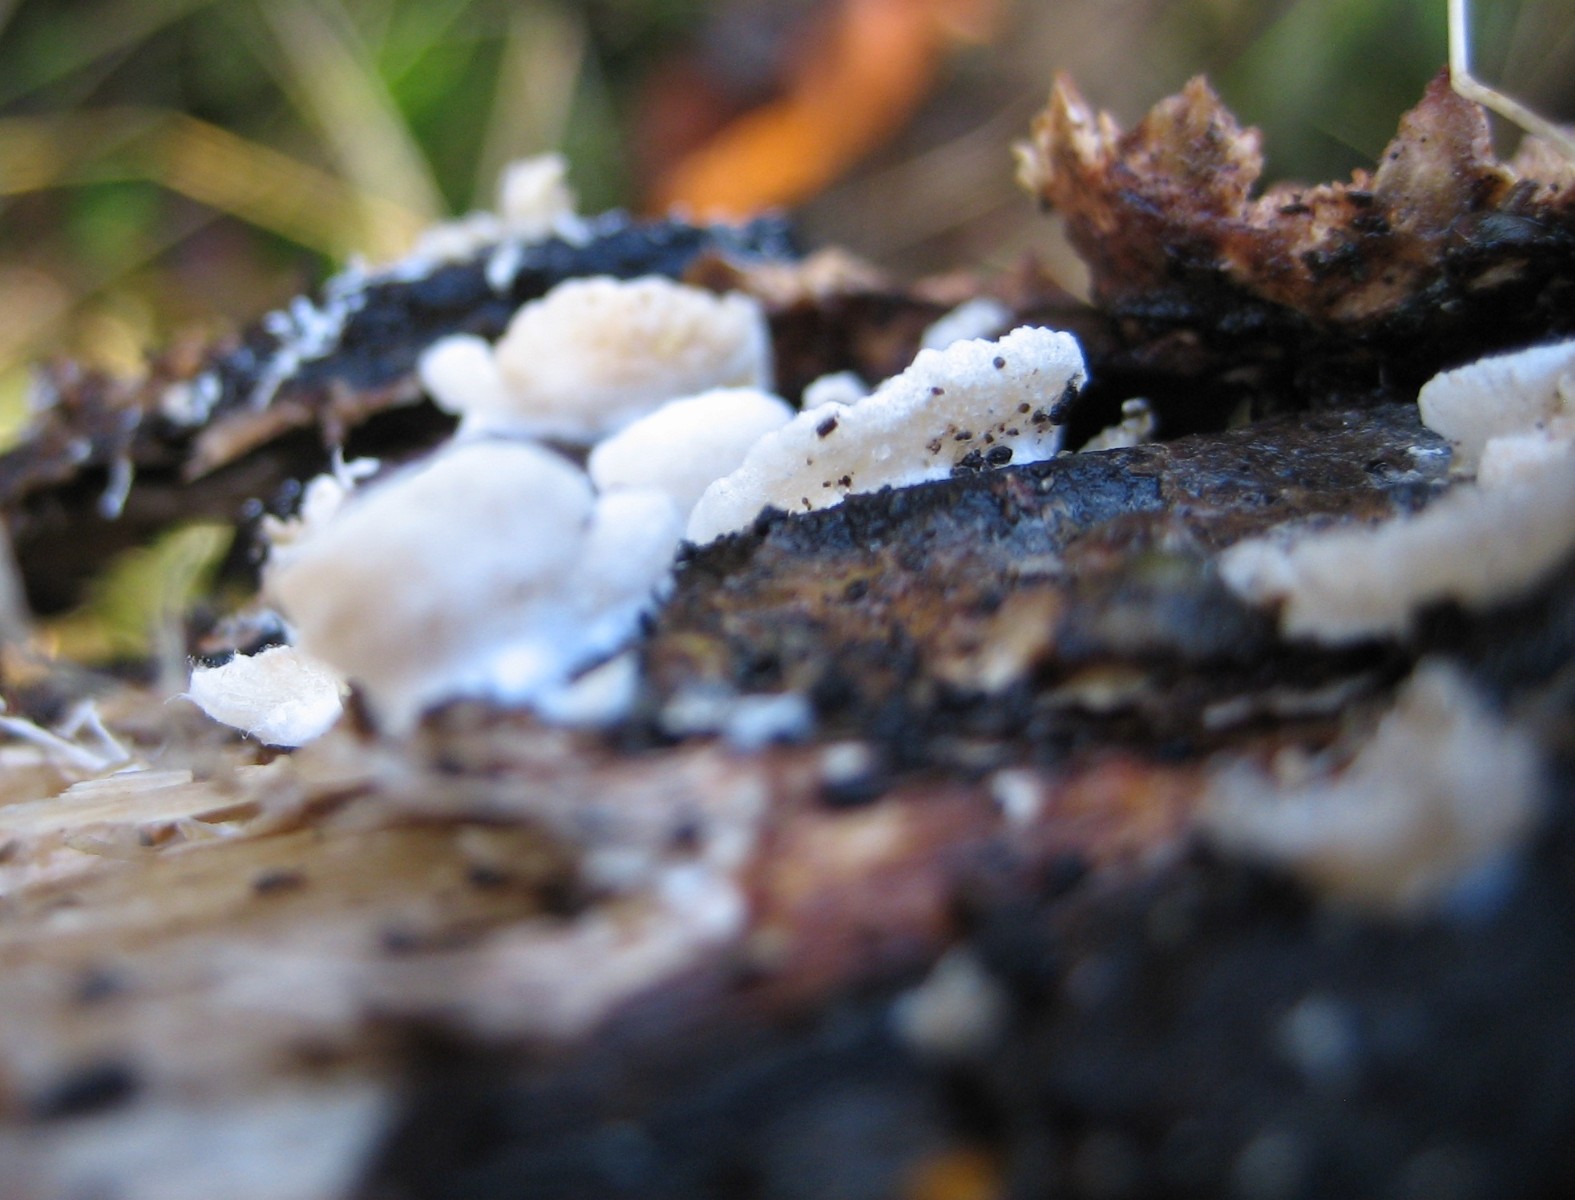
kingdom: Fungi
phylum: Basidiomycota
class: Agaricomycetes
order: Agaricales
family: Crepidotaceae
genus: Crepidotus
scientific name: Crepidotus
